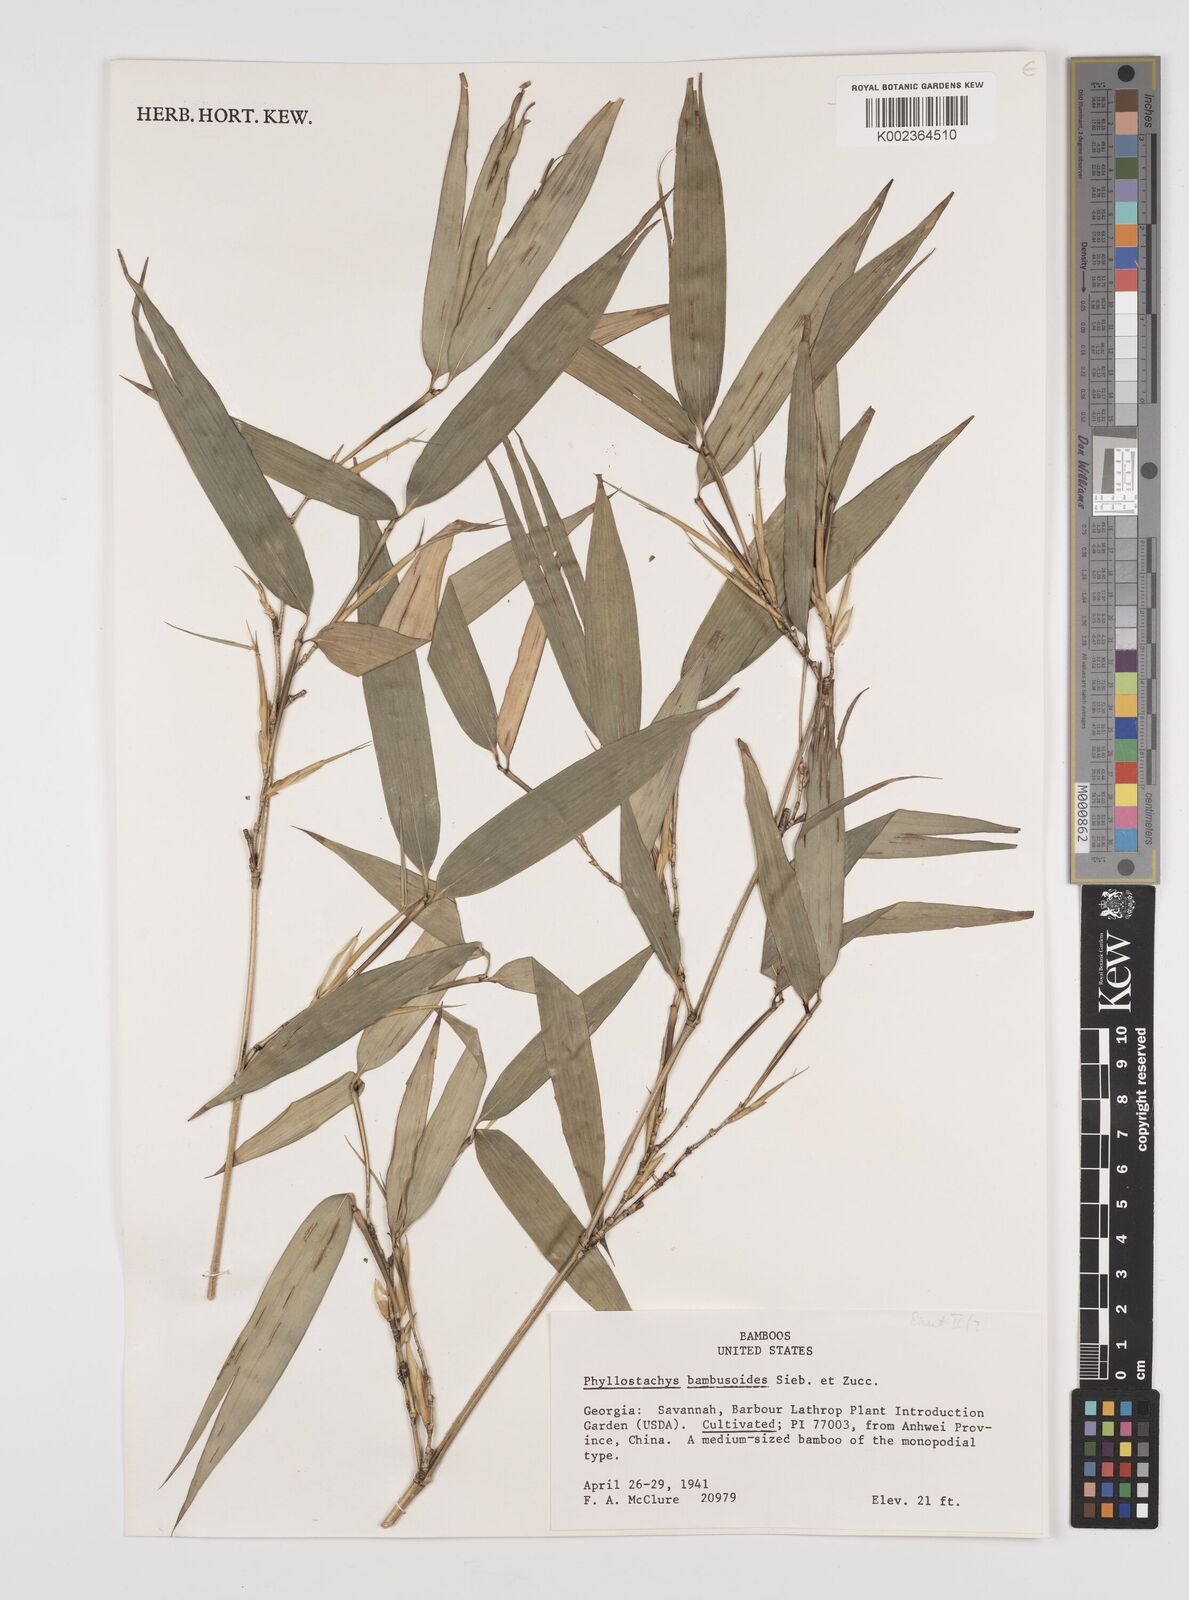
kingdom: Plantae
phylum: Tracheophyta
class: Liliopsida
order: Poales
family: Poaceae
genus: Phyllostachys
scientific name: Phyllostachys reticulata
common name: Bamboo
